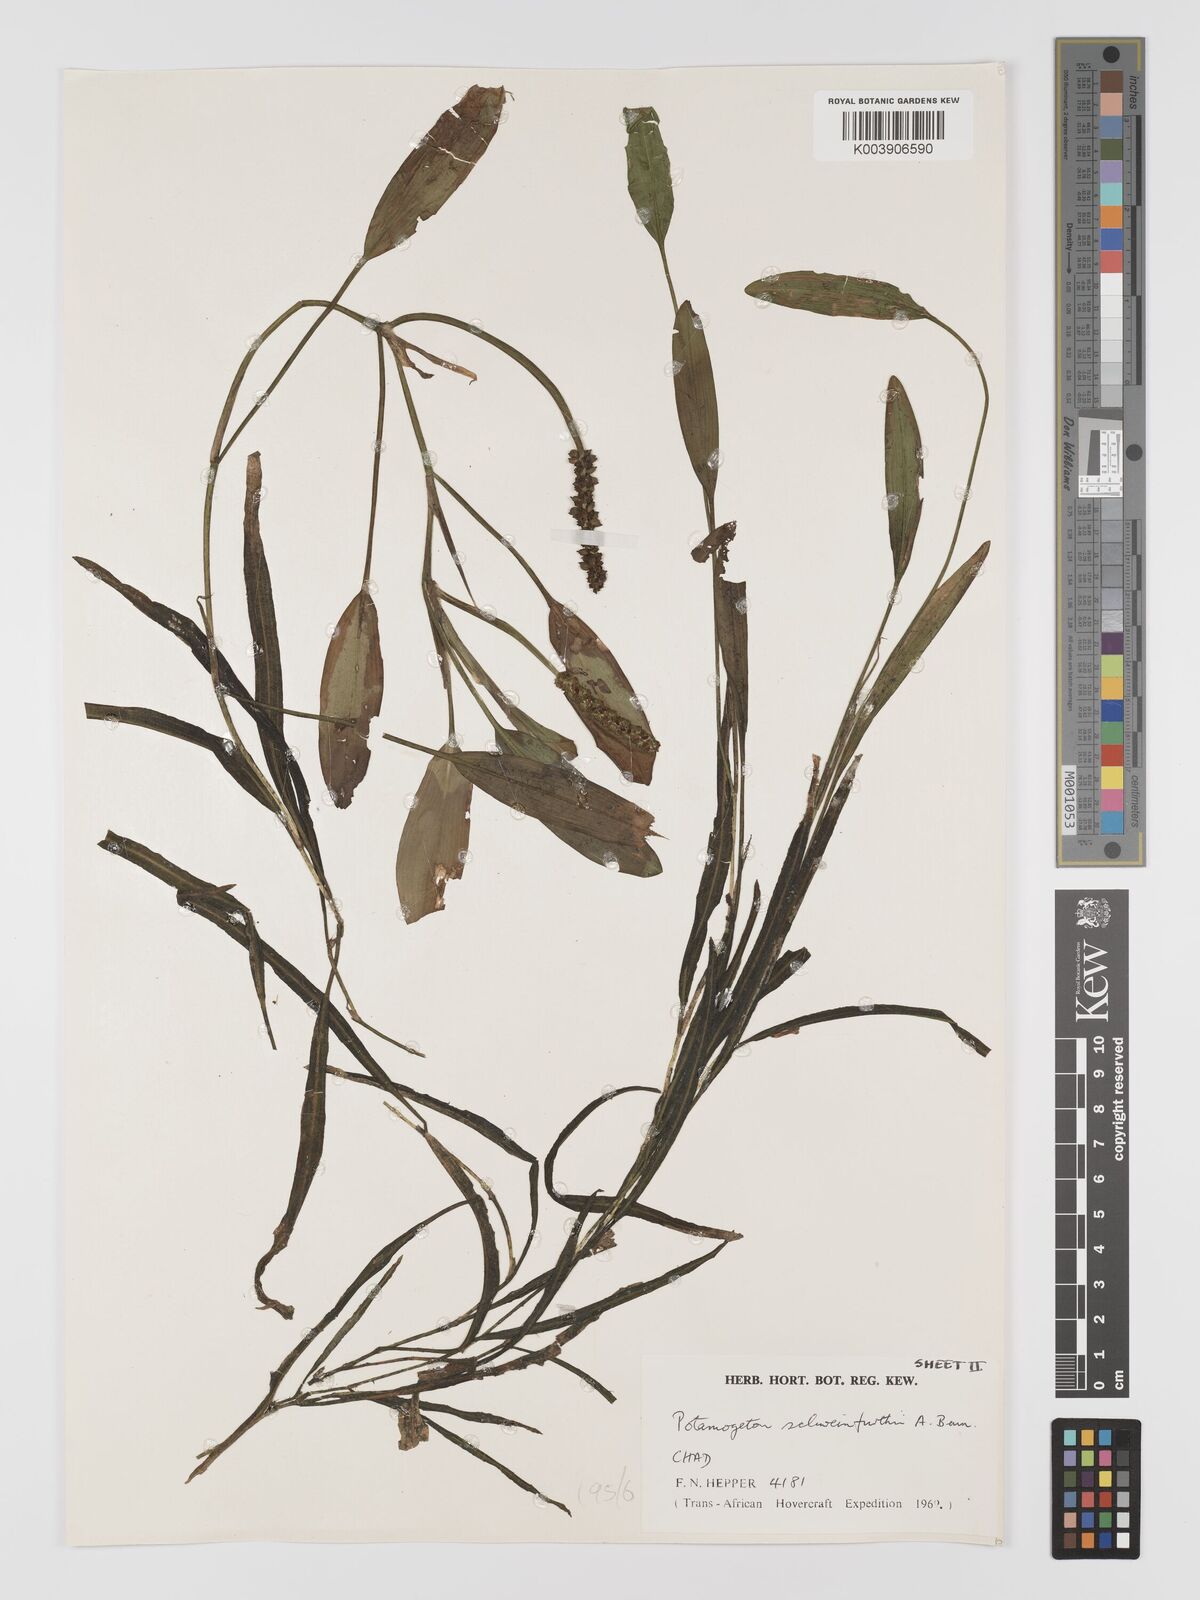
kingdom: Plantae
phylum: Tracheophyta
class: Liliopsida
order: Alismatales
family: Potamogetonaceae
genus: Potamogeton
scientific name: Potamogeton schweinfurthii
